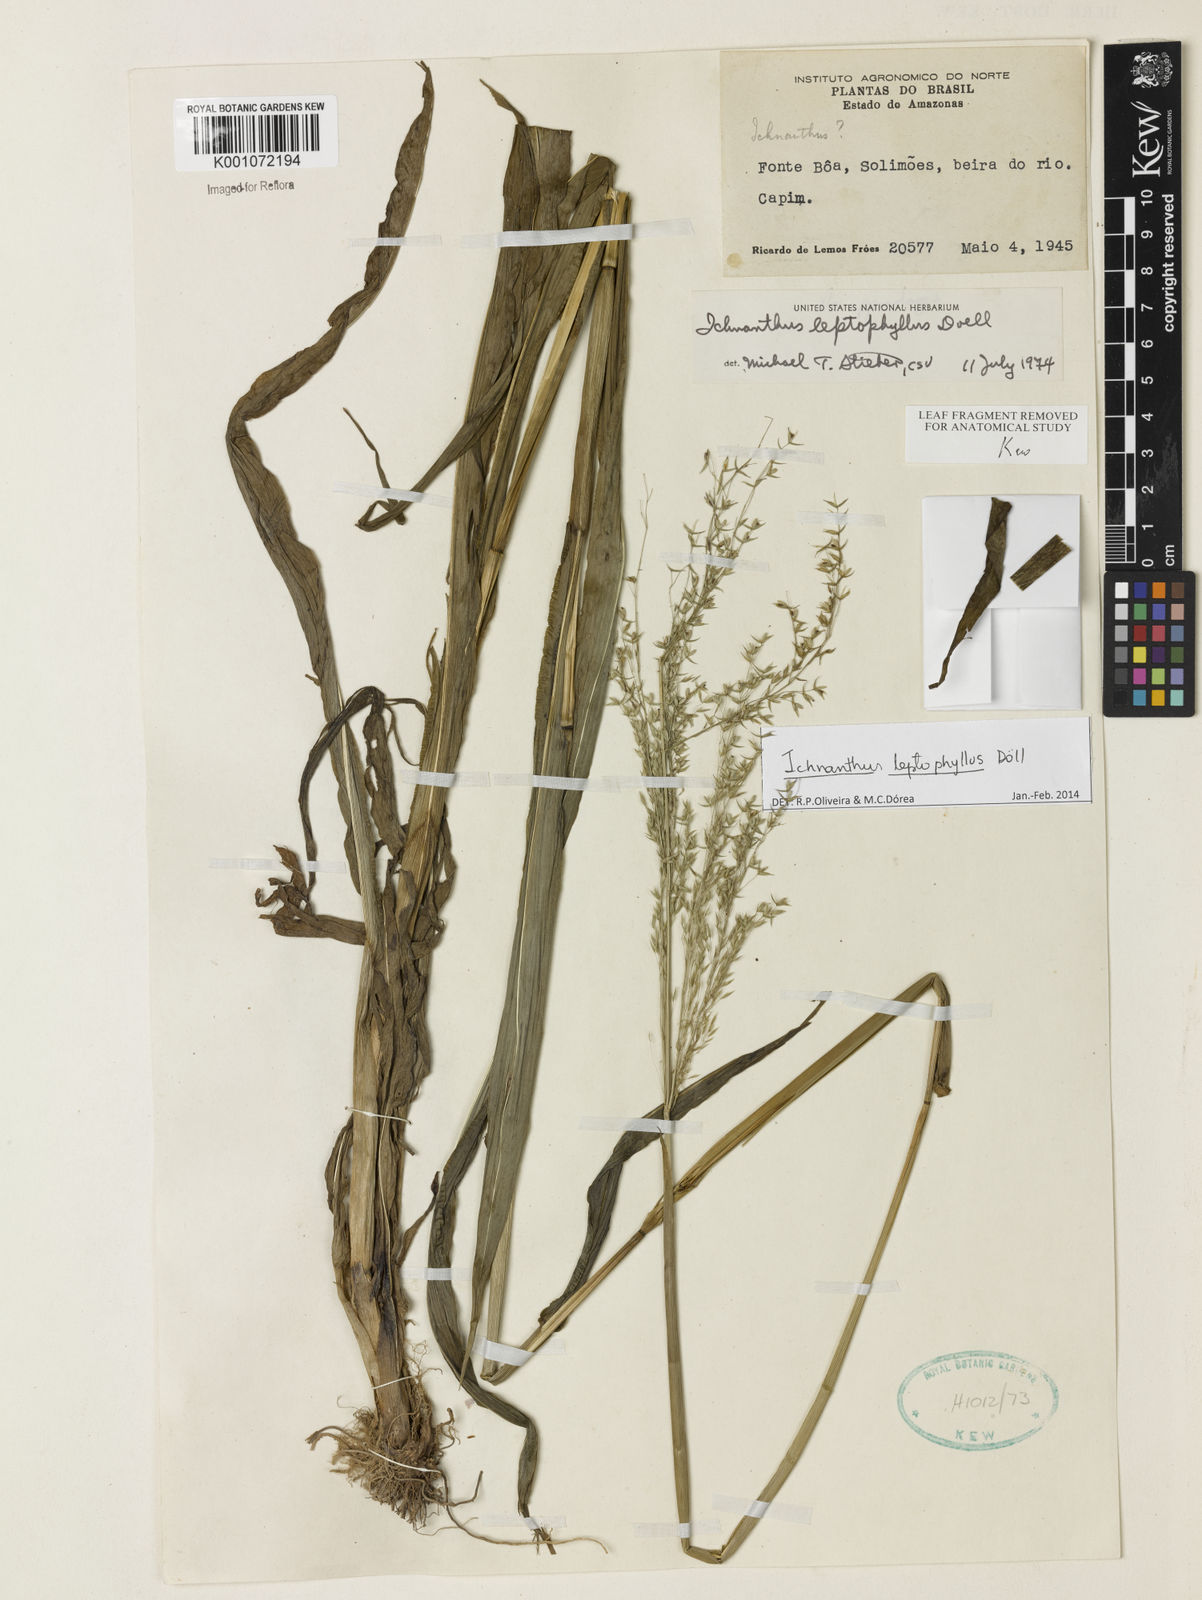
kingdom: Plantae
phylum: Tracheophyta
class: Liliopsida
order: Poales
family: Poaceae
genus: Ichnanthus
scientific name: Ichnanthus
